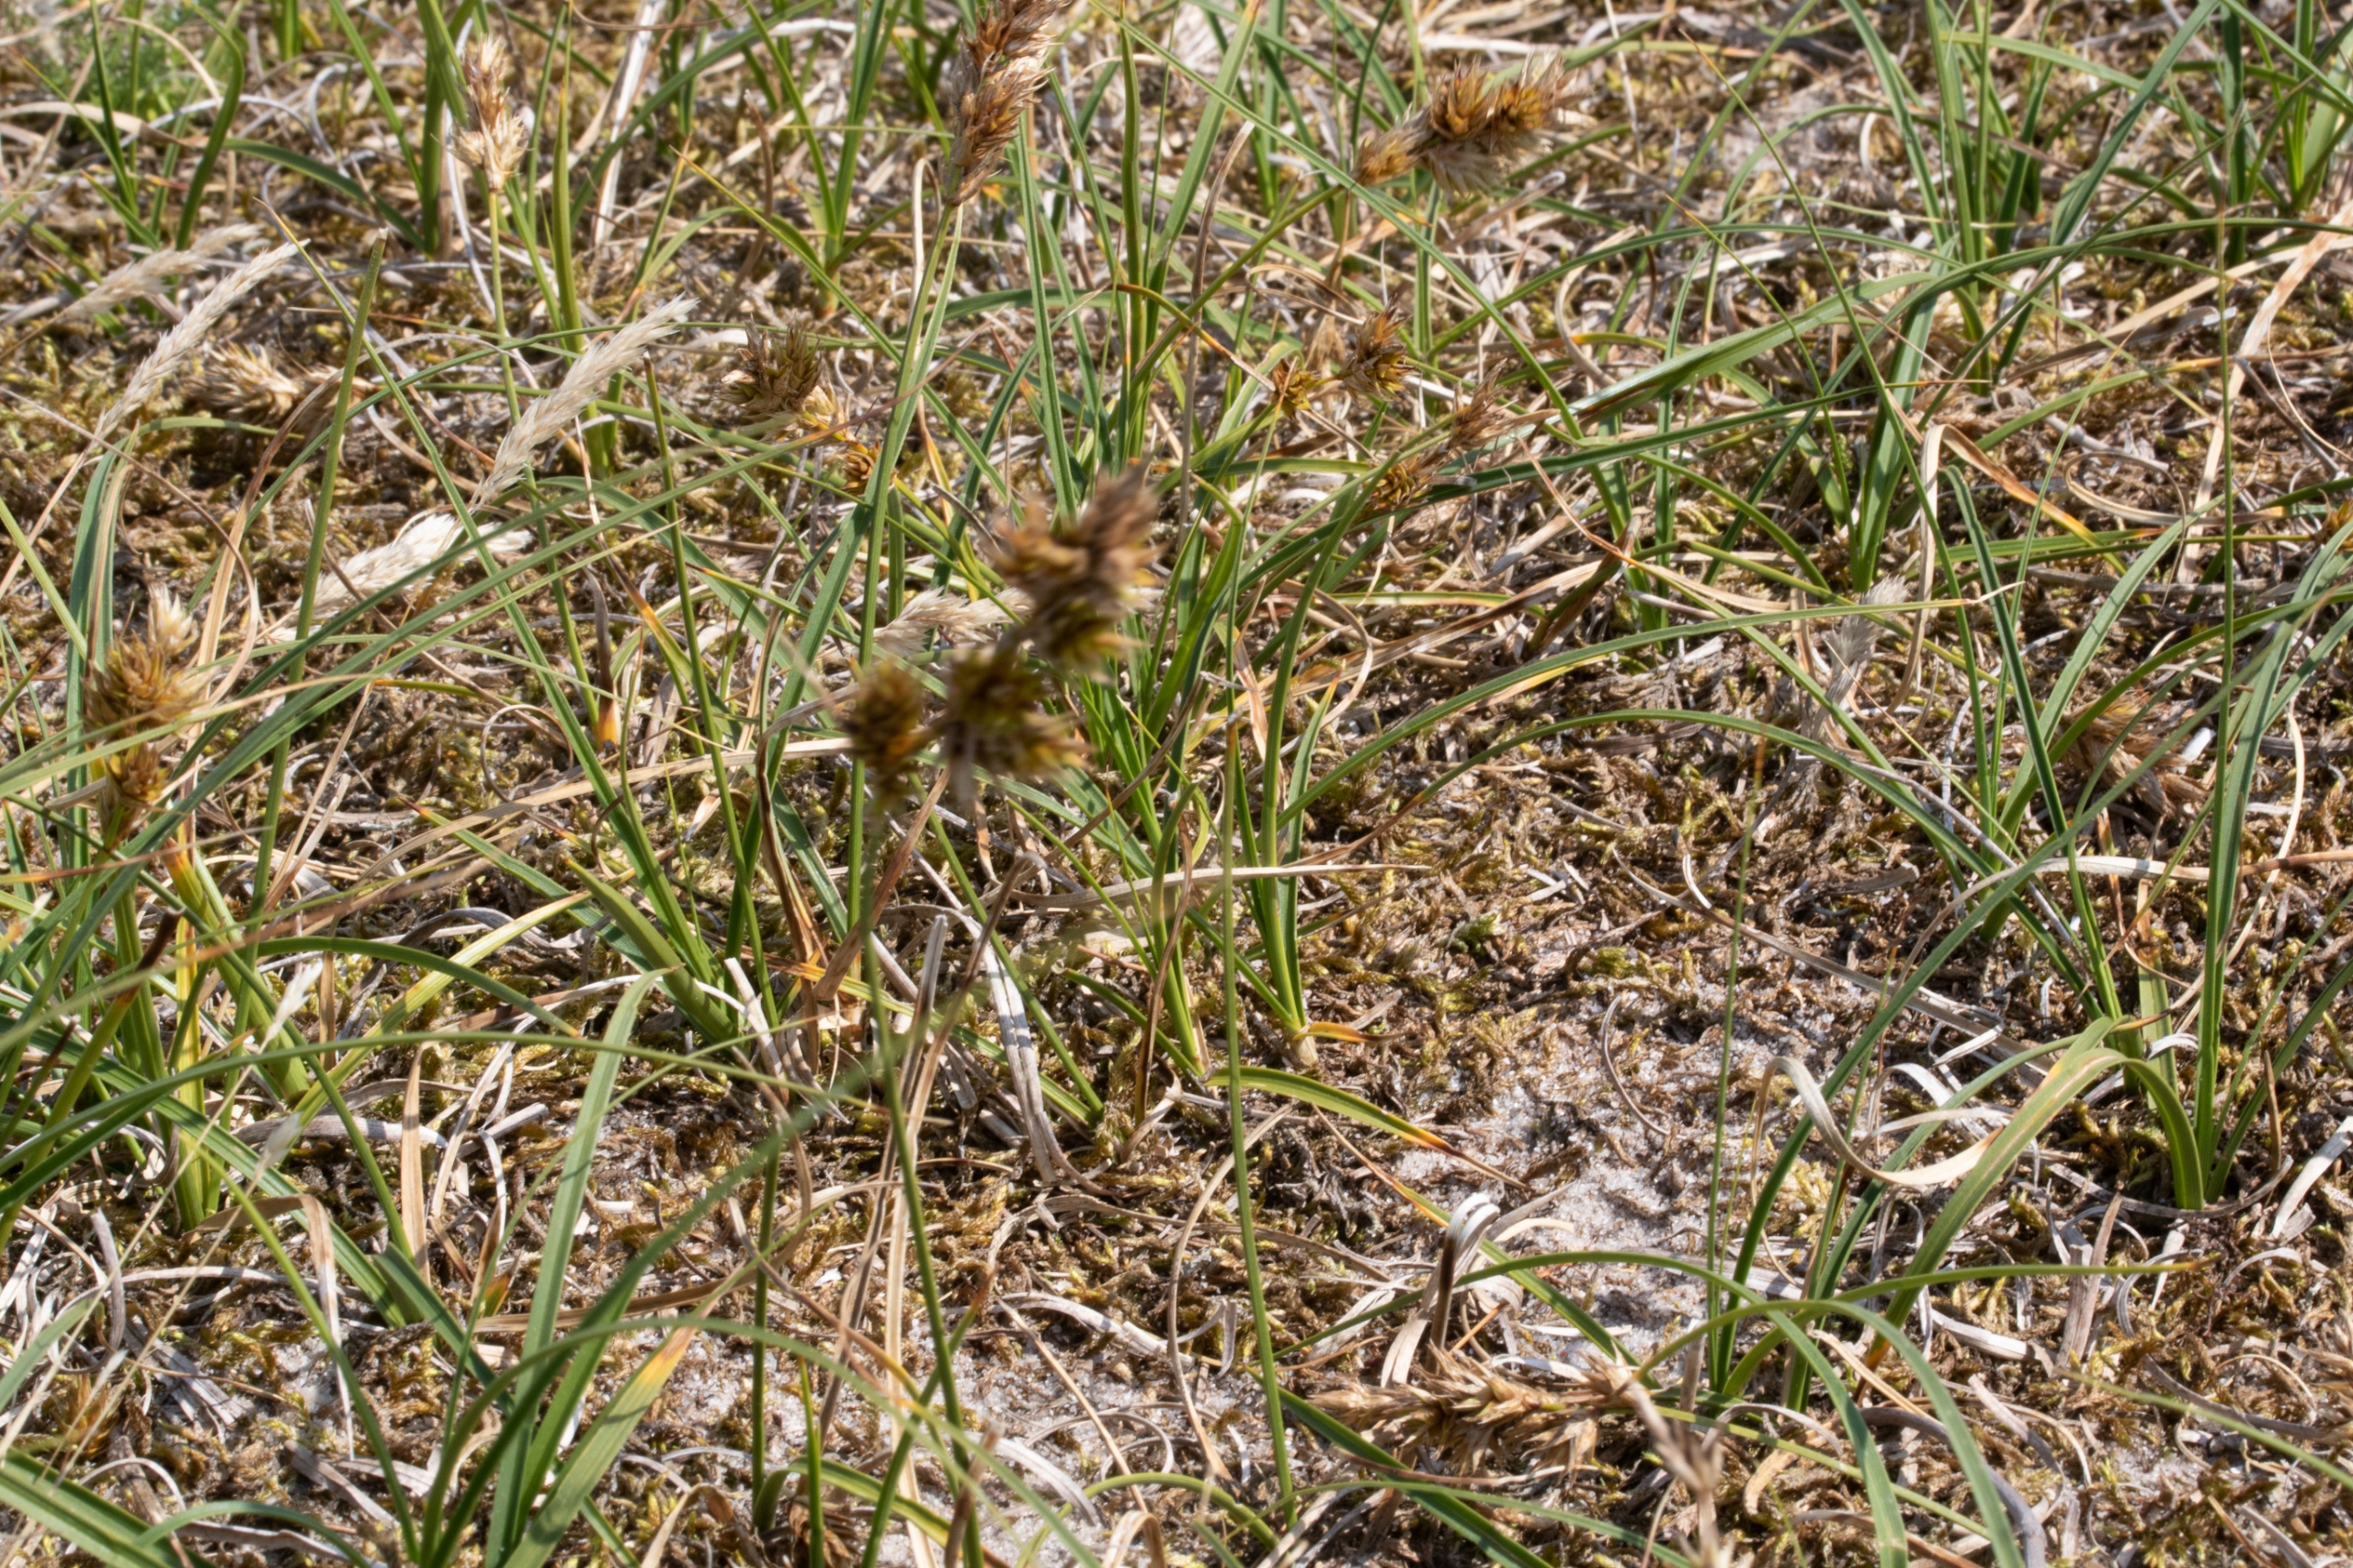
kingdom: Plantae
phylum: Tracheophyta
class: Liliopsida
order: Poales
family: Cyperaceae
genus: Carex
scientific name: Carex arenaria
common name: Sand-star
